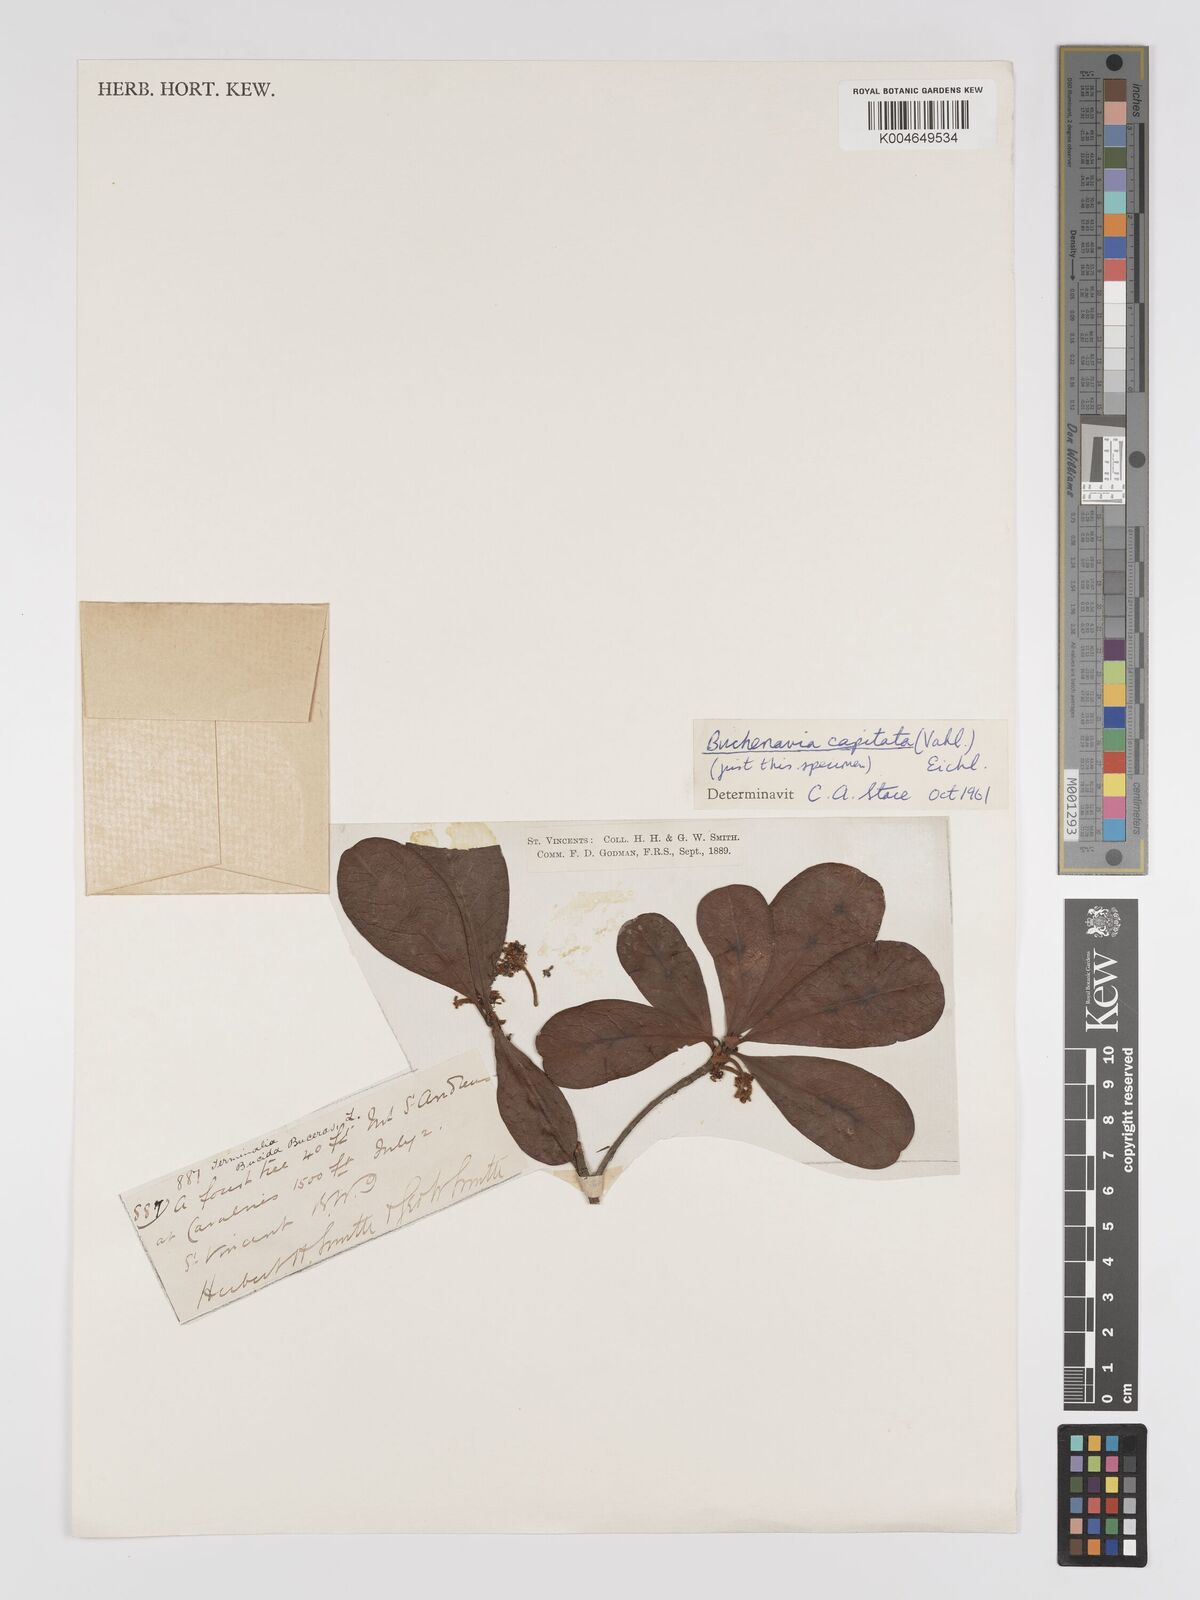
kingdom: Plantae
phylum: Tracheophyta
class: Magnoliopsida
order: Myrtales
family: Combretaceae
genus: Terminalia
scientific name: Terminalia tetraphylla
